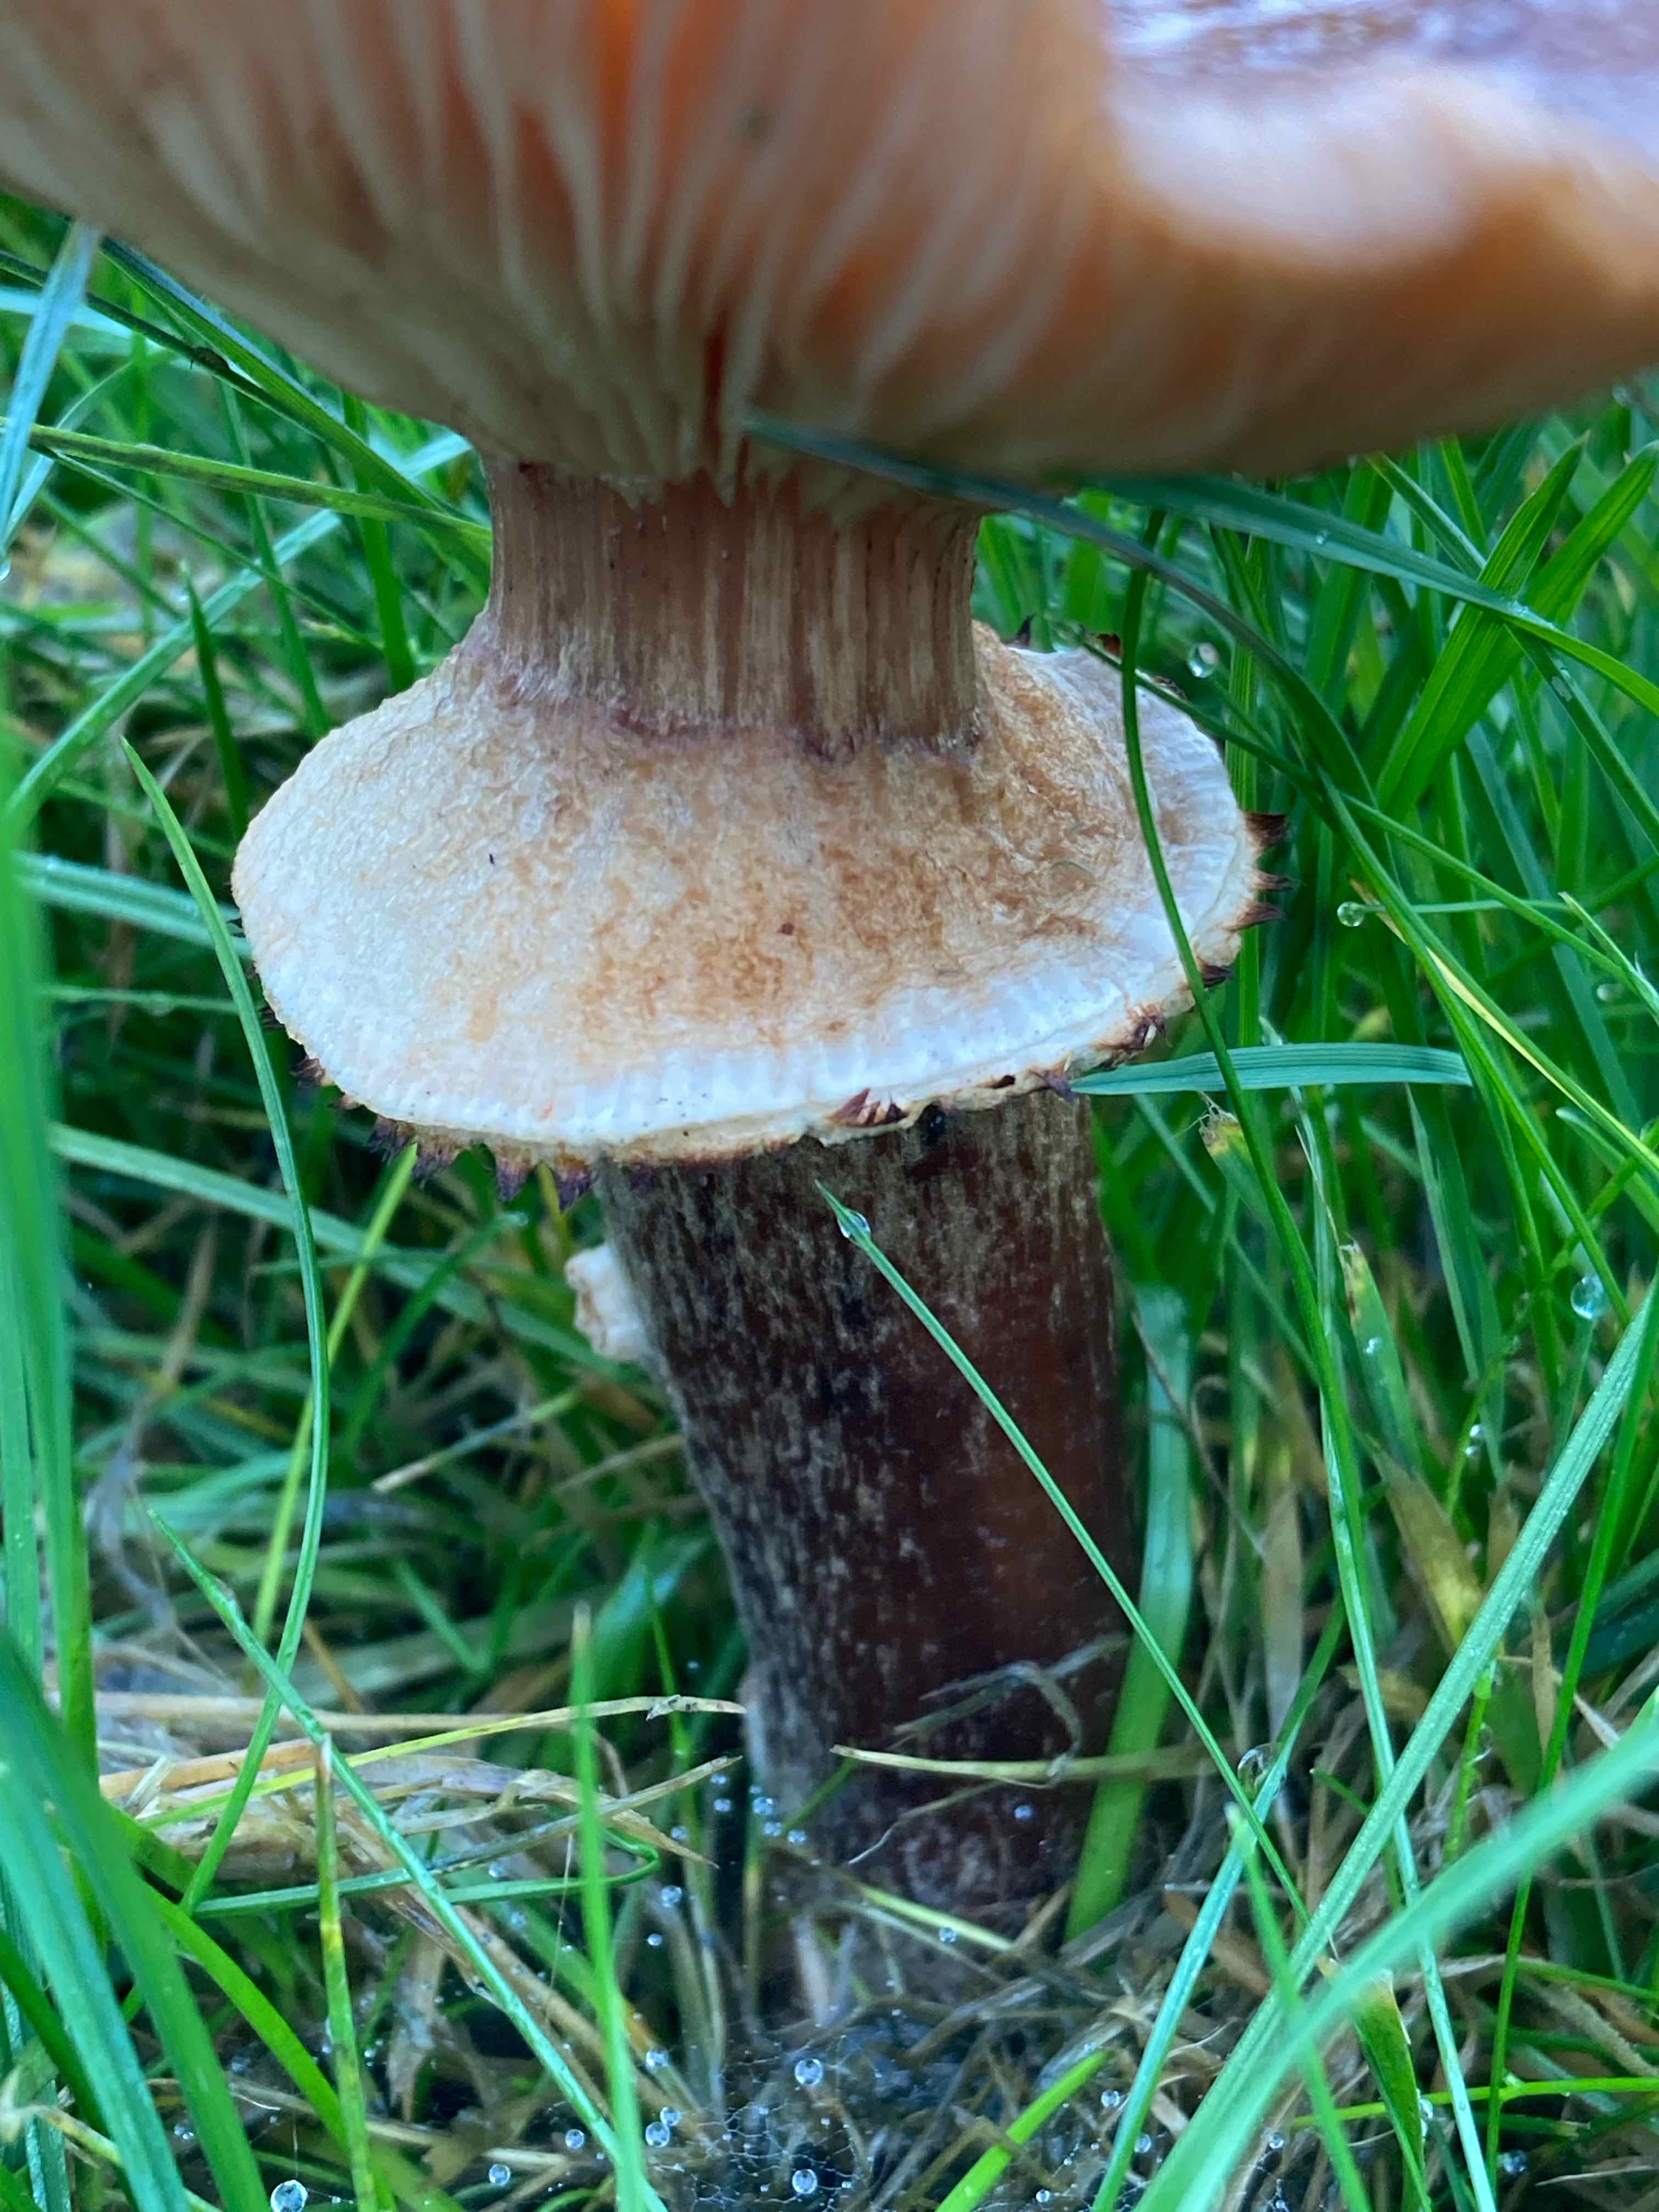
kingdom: Fungi
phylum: Basidiomycota
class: Agaricomycetes
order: Agaricales
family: Physalacriaceae
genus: Armillaria
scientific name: Armillaria ostoyae
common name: mørk honningsvamp
